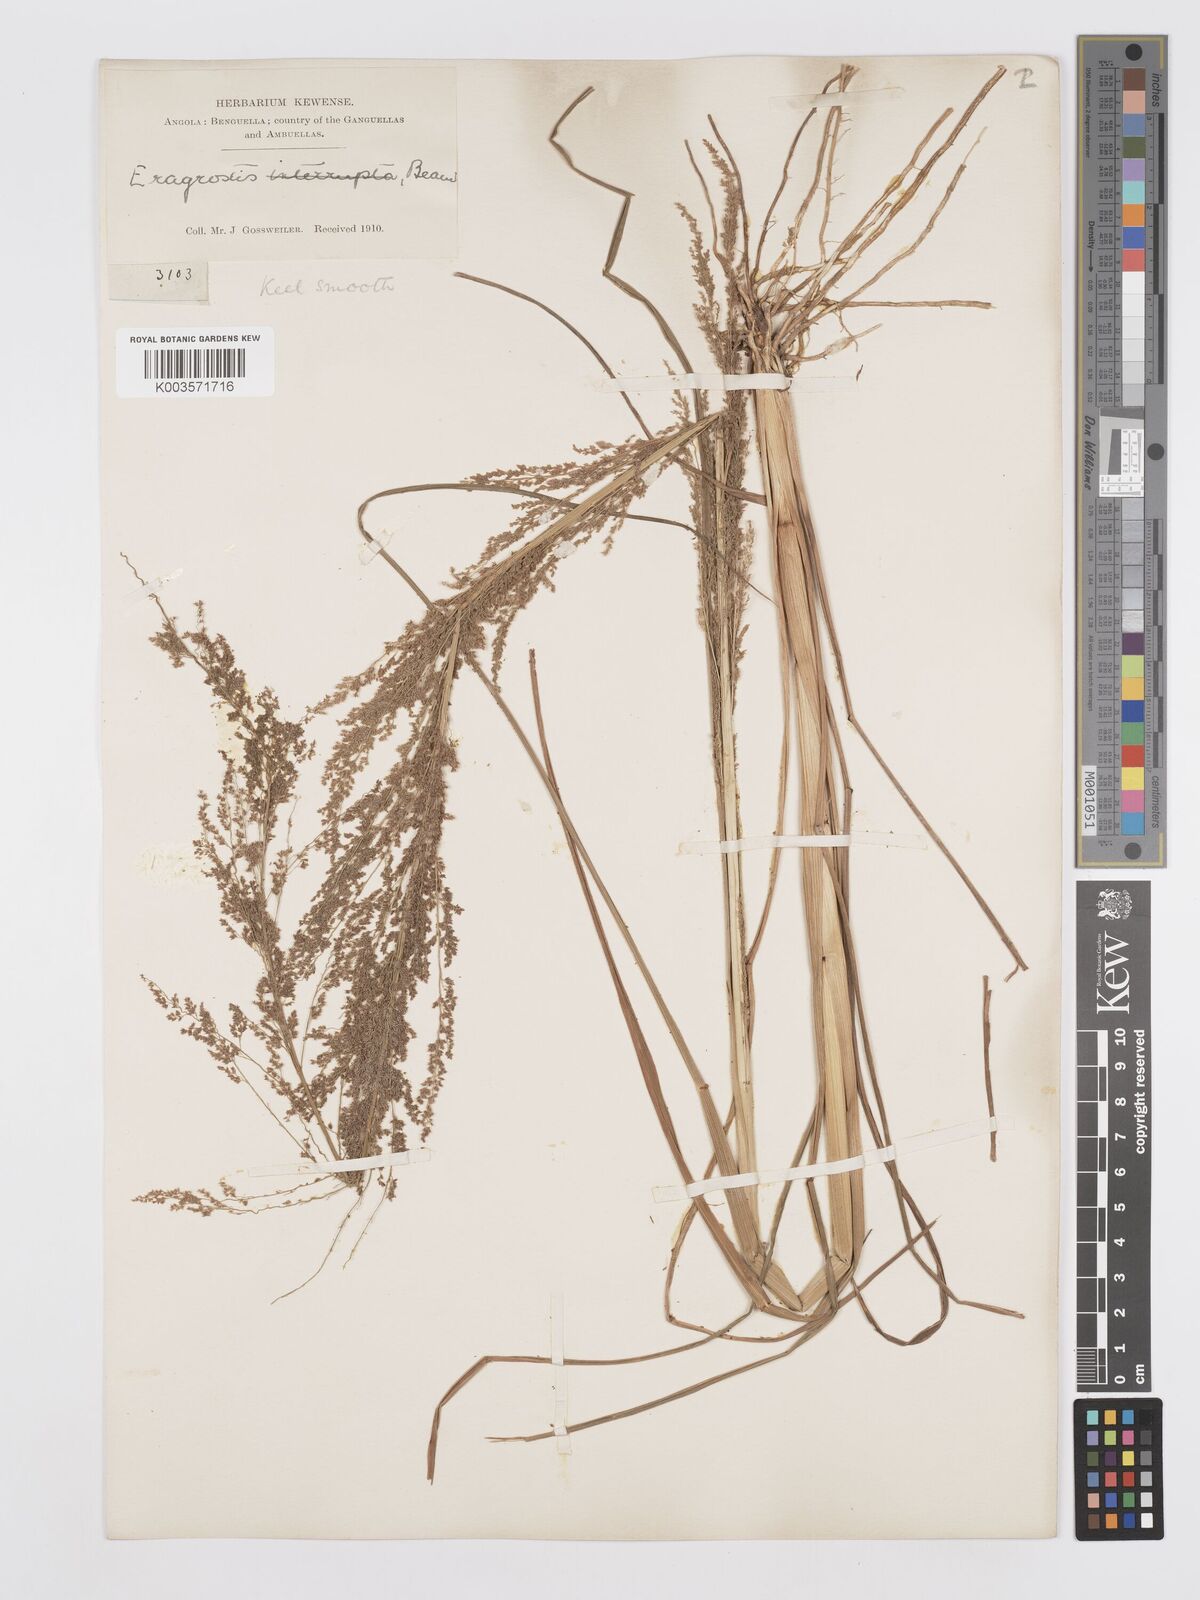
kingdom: Plantae
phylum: Tracheophyta
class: Liliopsida
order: Poales
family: Poaceae
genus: Eragrostis
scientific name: Eragrostis japonica
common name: Pond lovegrass
